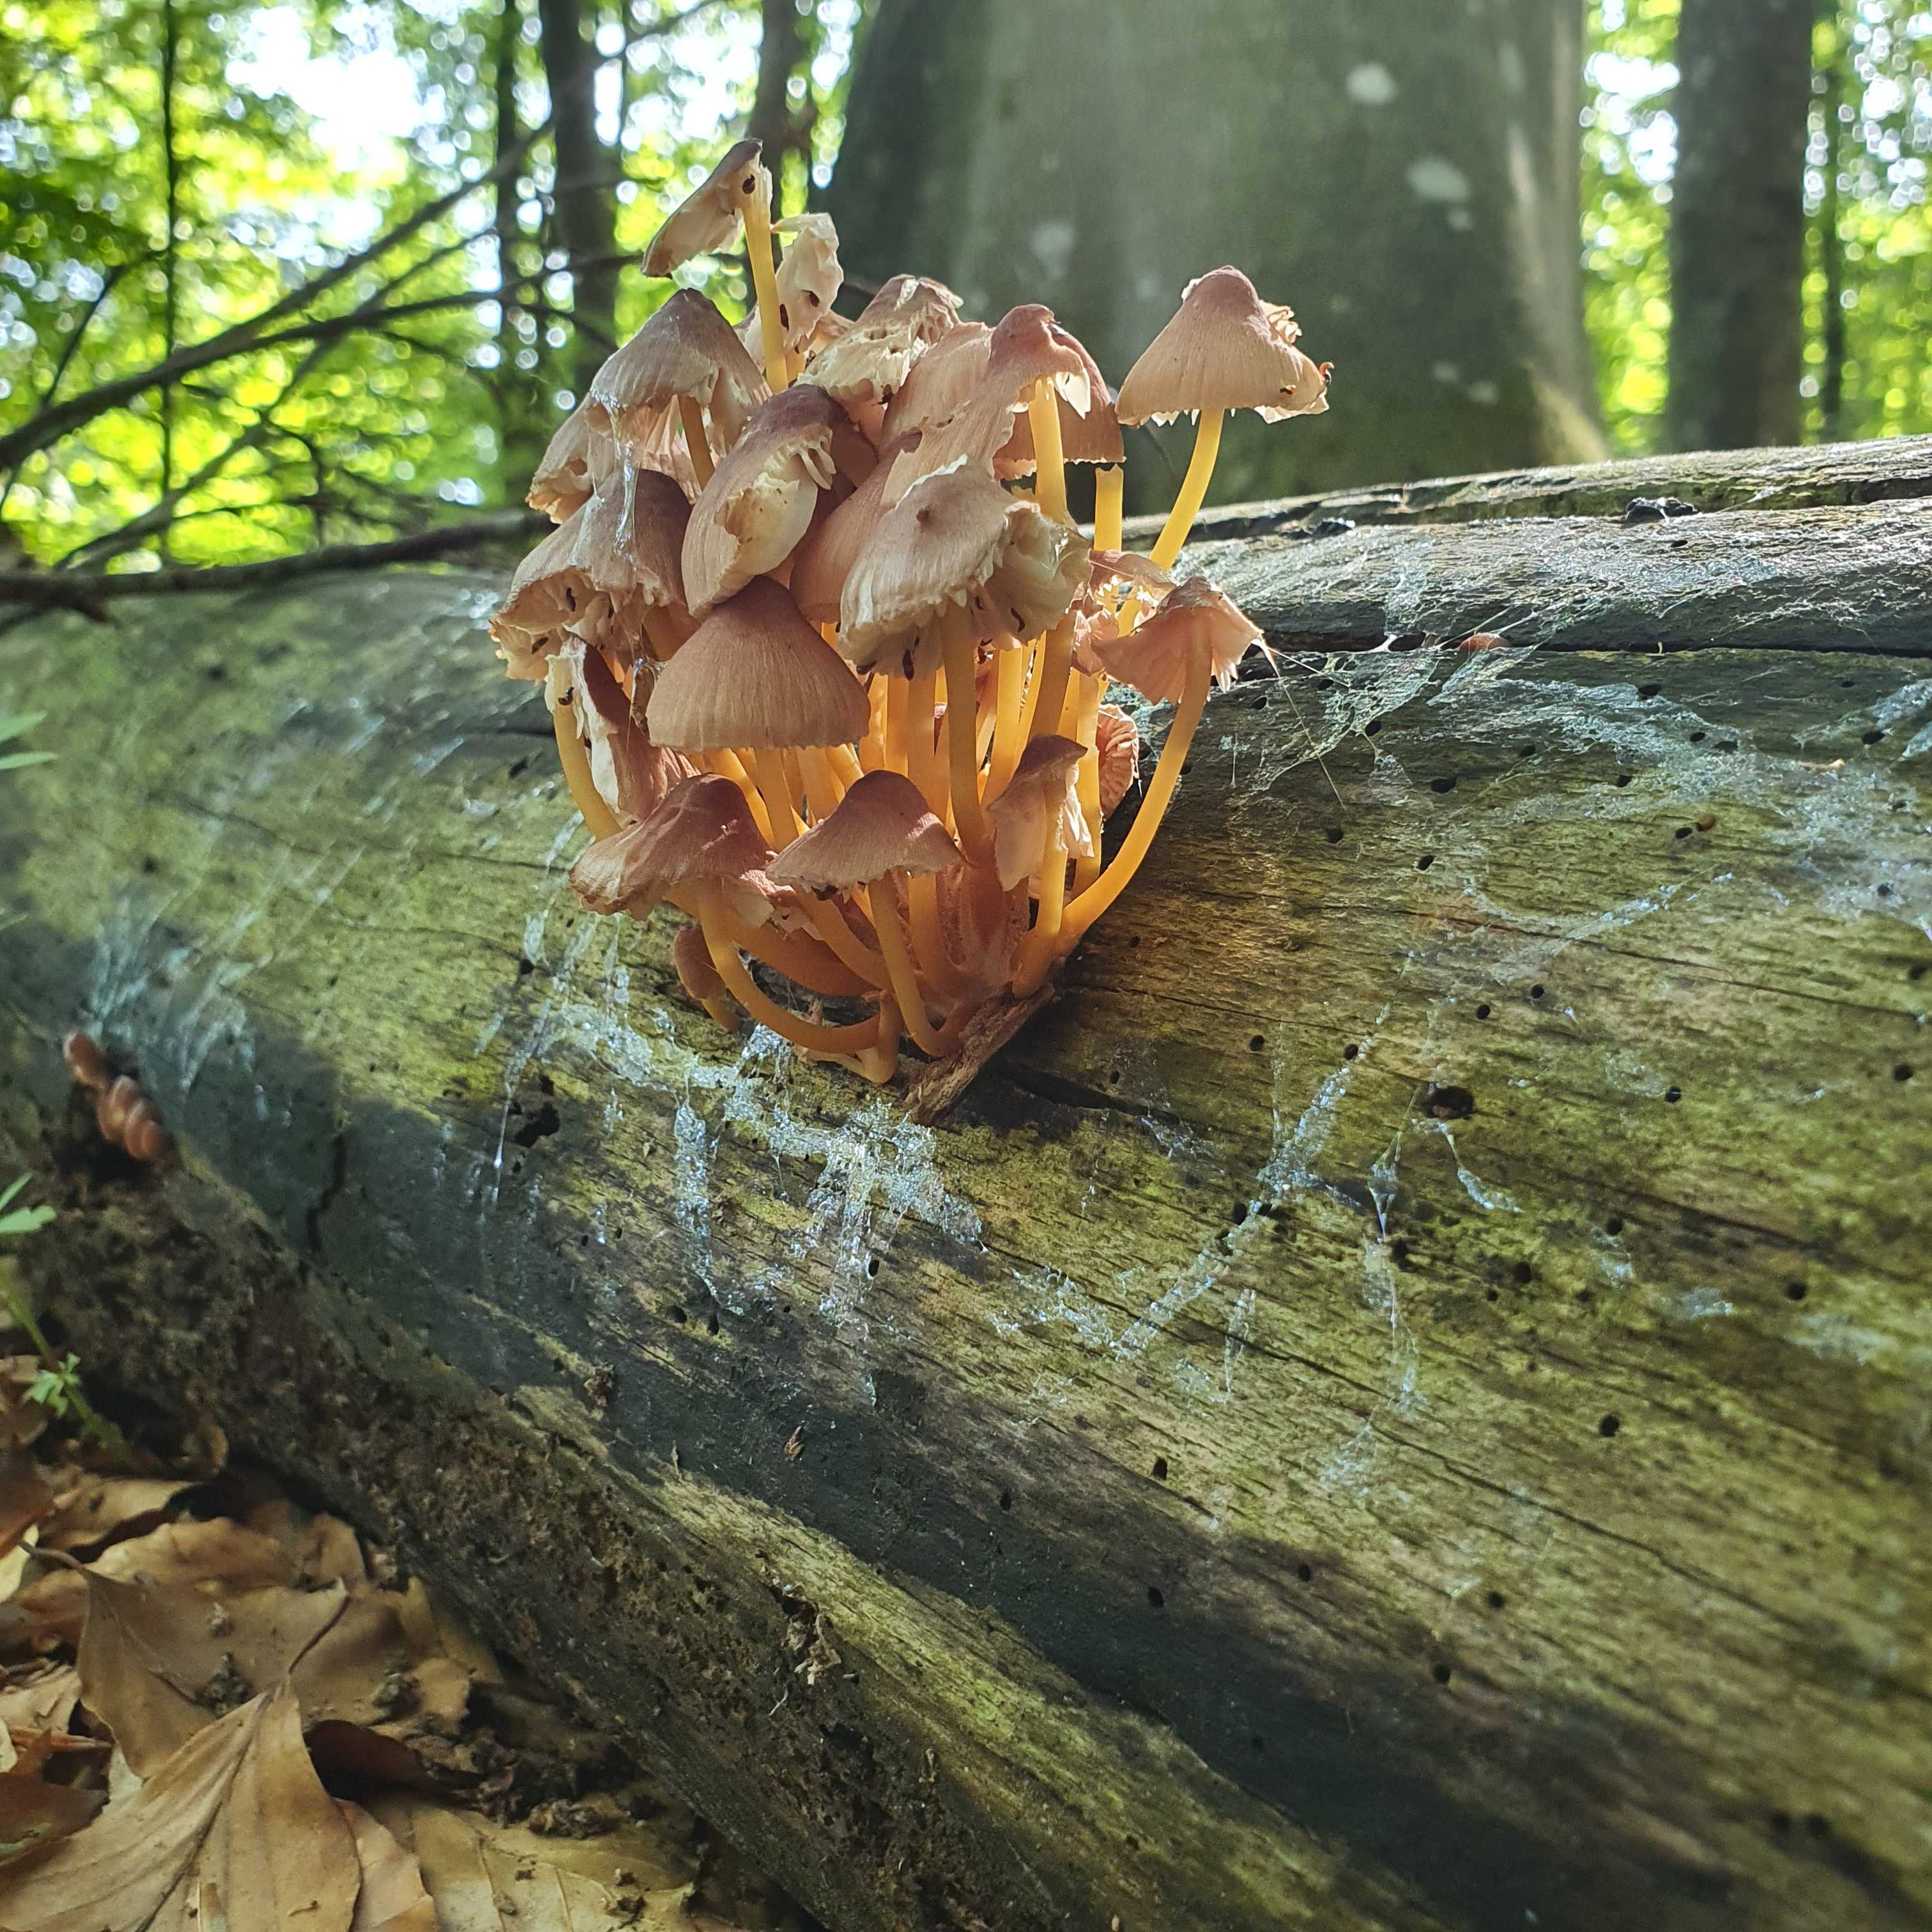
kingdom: Fungi
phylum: Basidiomycota
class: Agaricomycetes
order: Agaricales
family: Mycenaceae
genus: Mycena
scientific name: Mycena renati
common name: smuk huesvamp
